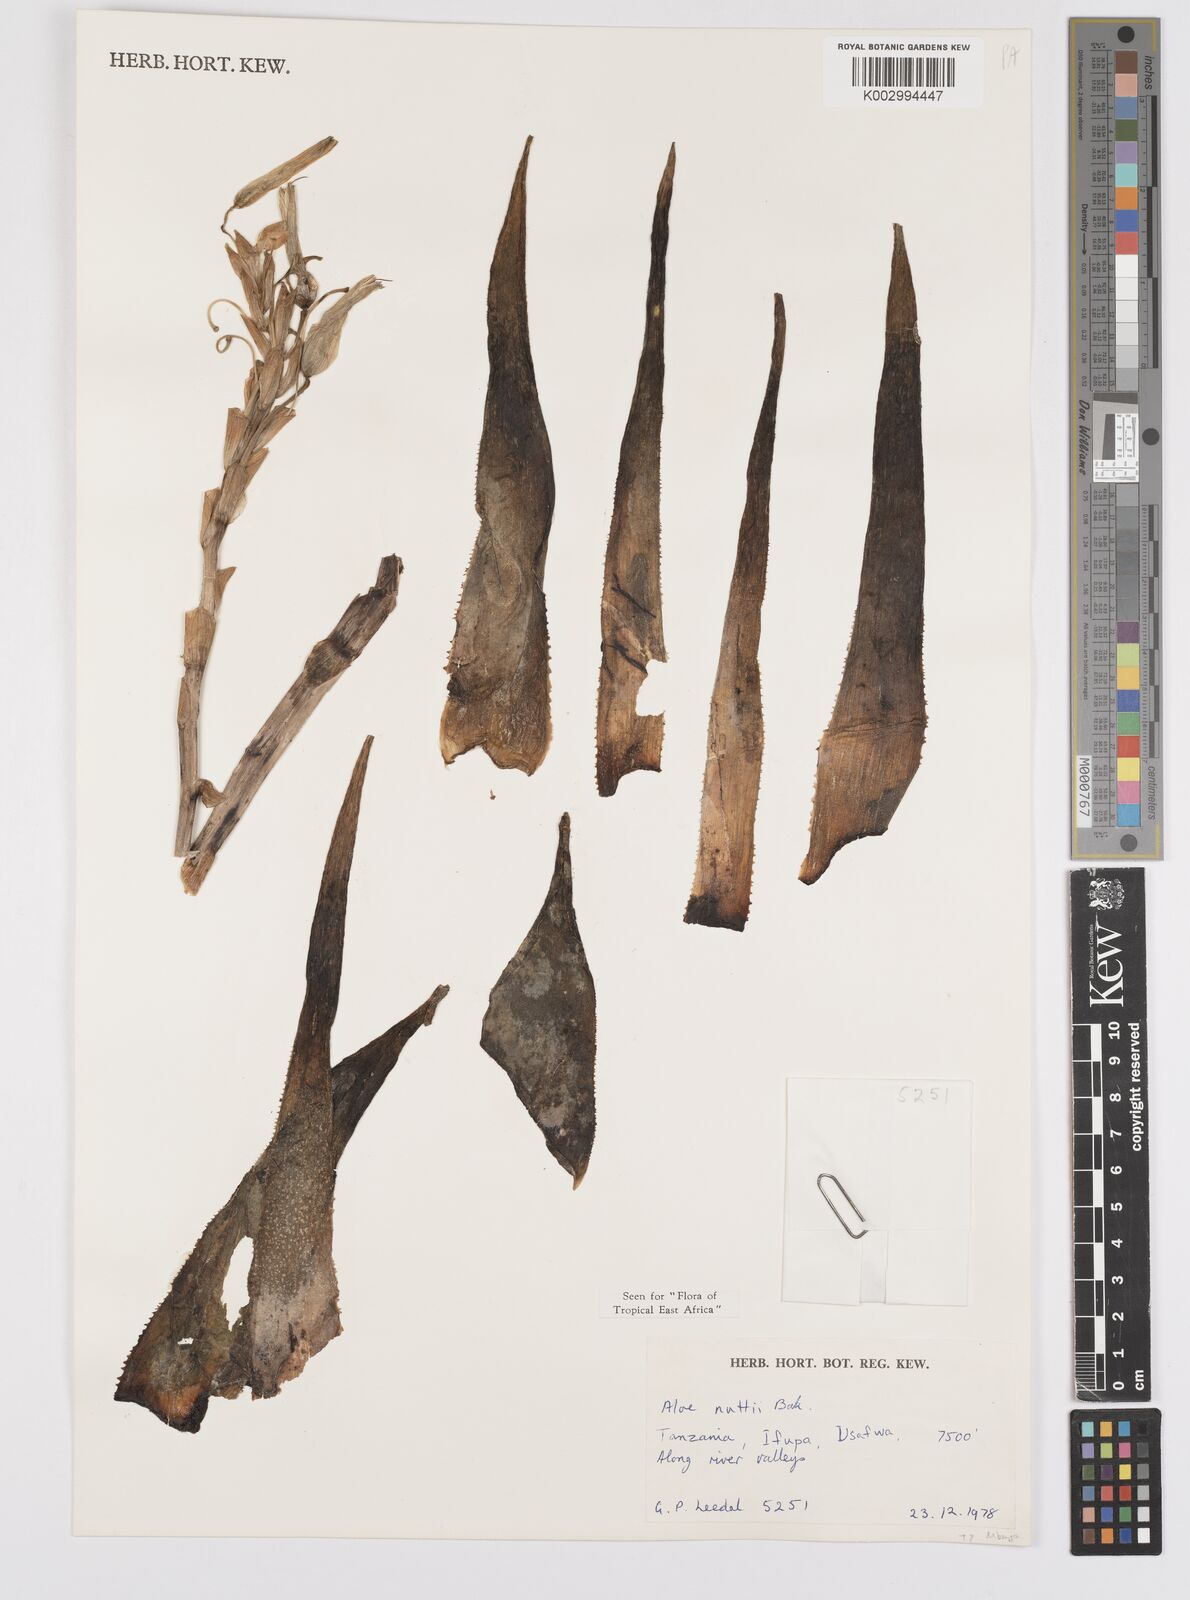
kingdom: Plantae
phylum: Tracheophyta
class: Liliopsida
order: Asparagales
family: Asphodelaceae
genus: Aloe
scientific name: Aloe nuttii
